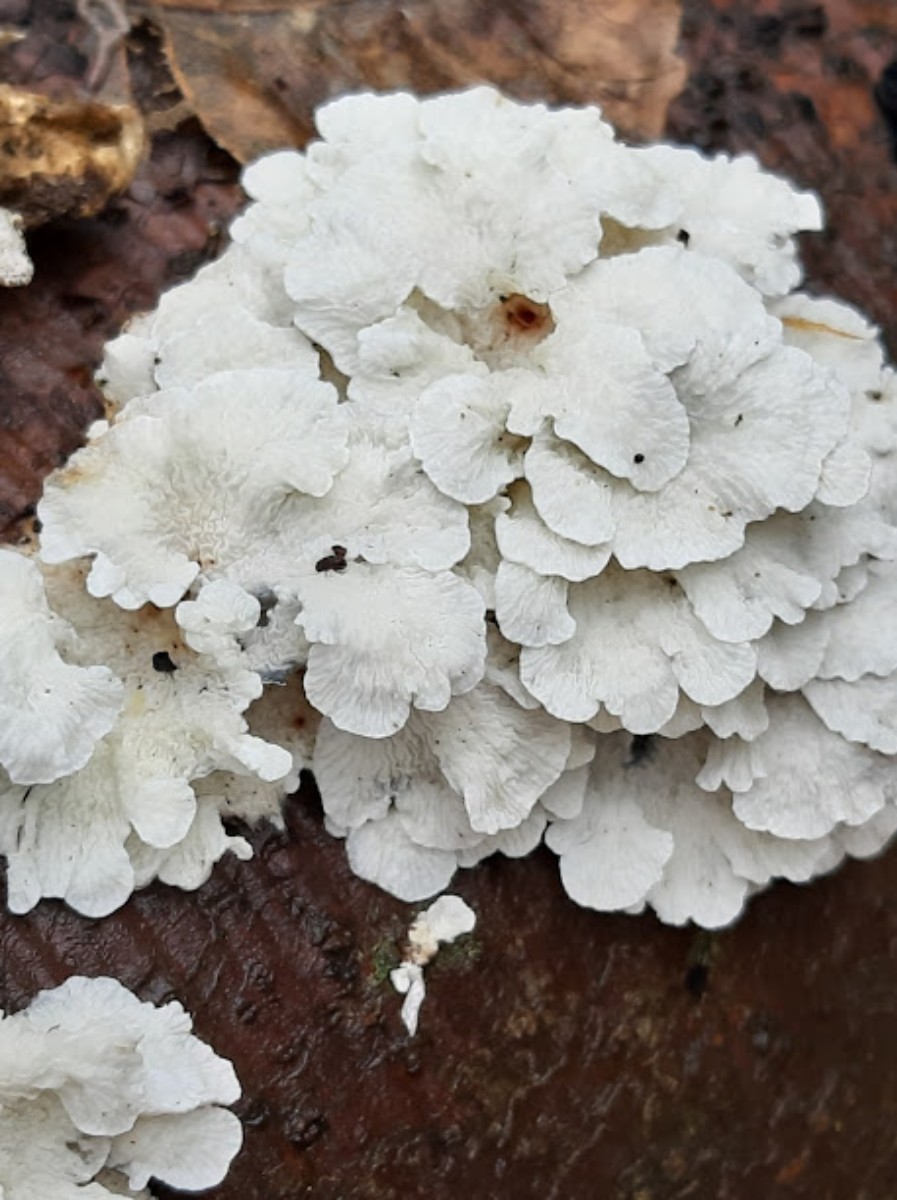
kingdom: Fungi
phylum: Basidiomycota
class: Agaricomycetes
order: Amylocorticiales
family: Amylocorticiaceae
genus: Plicaturopsis
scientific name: Plicaturopsis crispa
